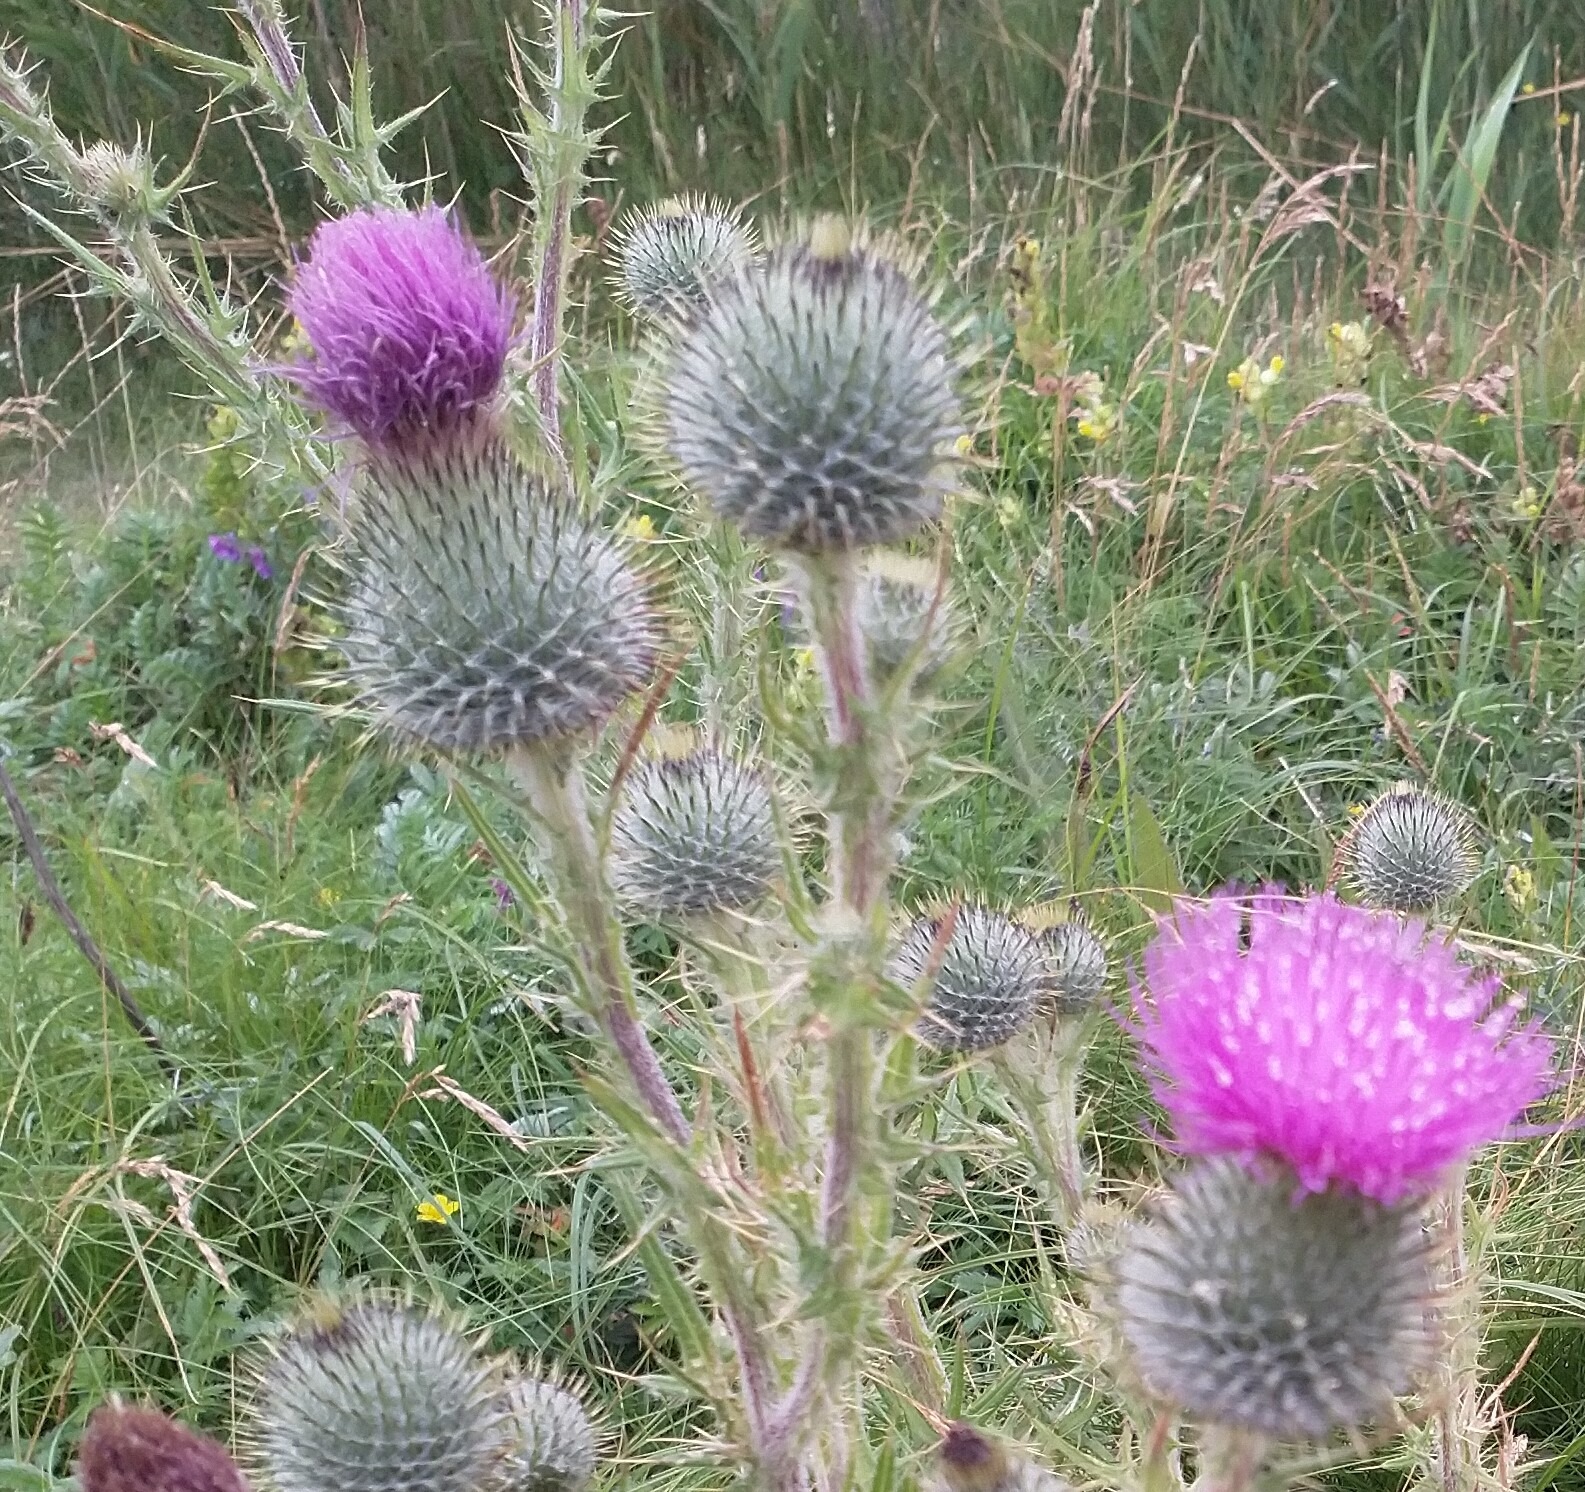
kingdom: Plantae
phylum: Tracheophyta
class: Magnoliopsida
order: Asterales
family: Asteraceae
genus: Cirsium
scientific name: Cirsium vulgare
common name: Horse-tidsel
